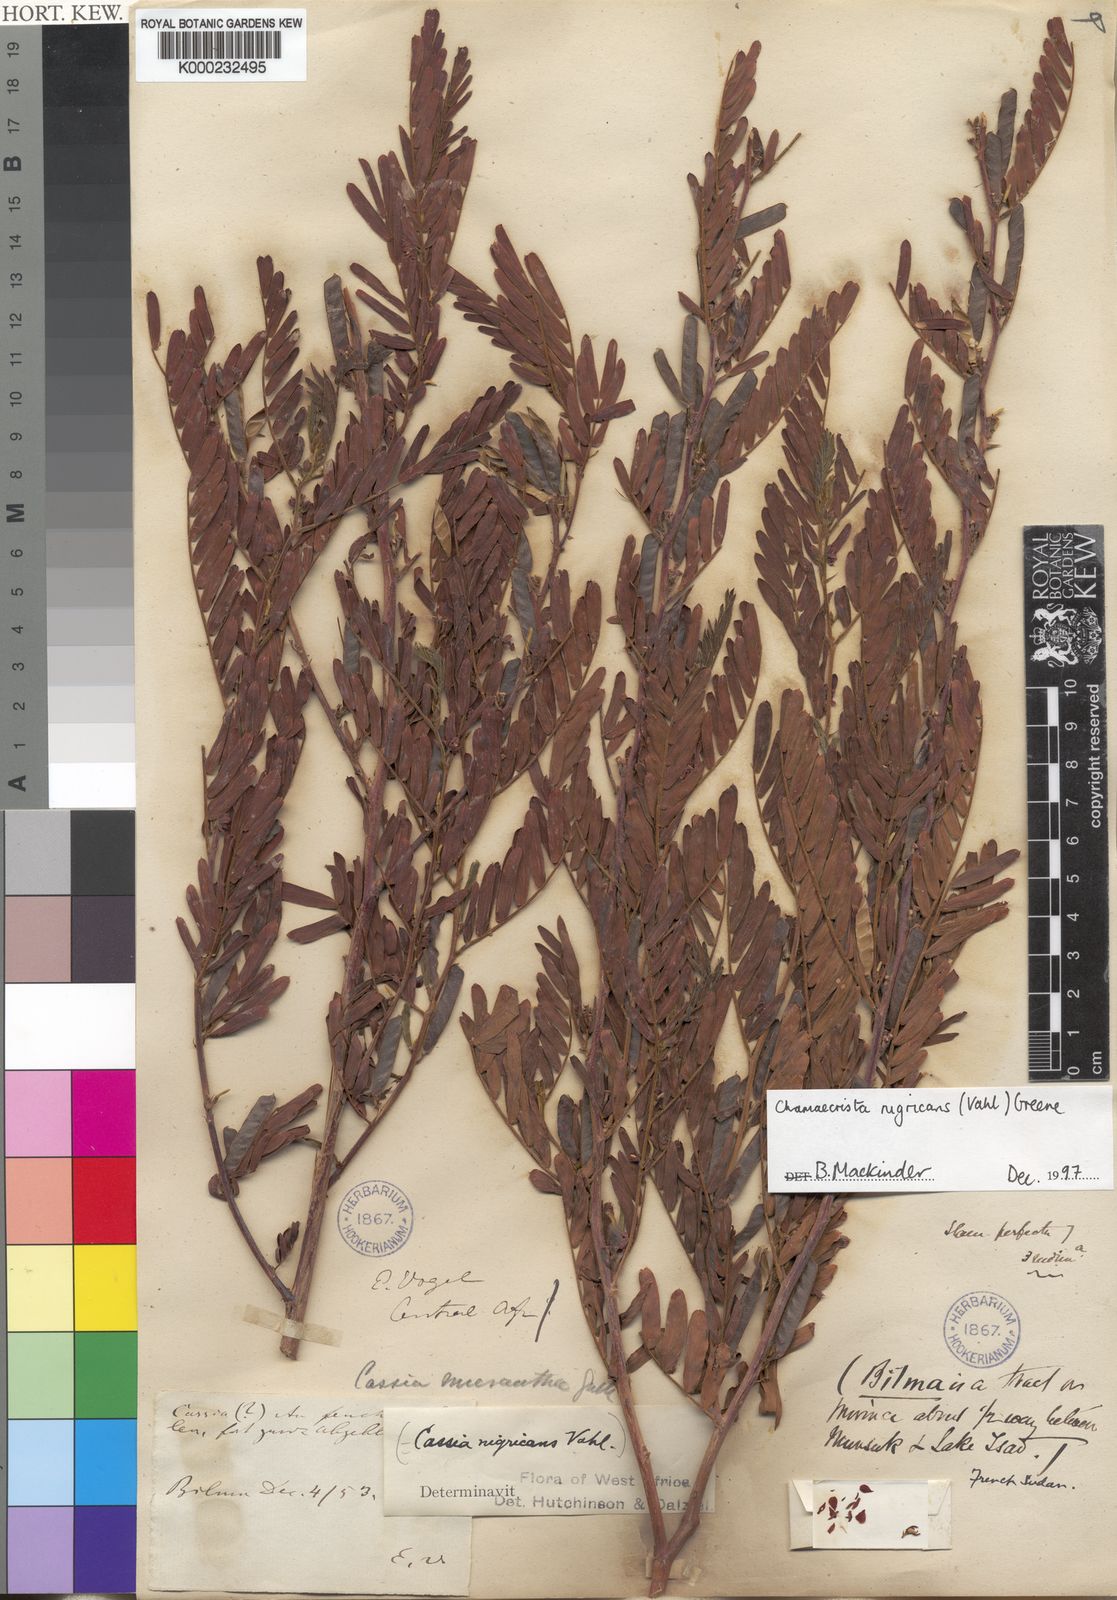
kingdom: Plantae
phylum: Tracheophyta
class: Magnoliopsida
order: Fabales
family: Fabaceae
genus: Chamaecrista
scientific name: Chamaecrista nigricans
